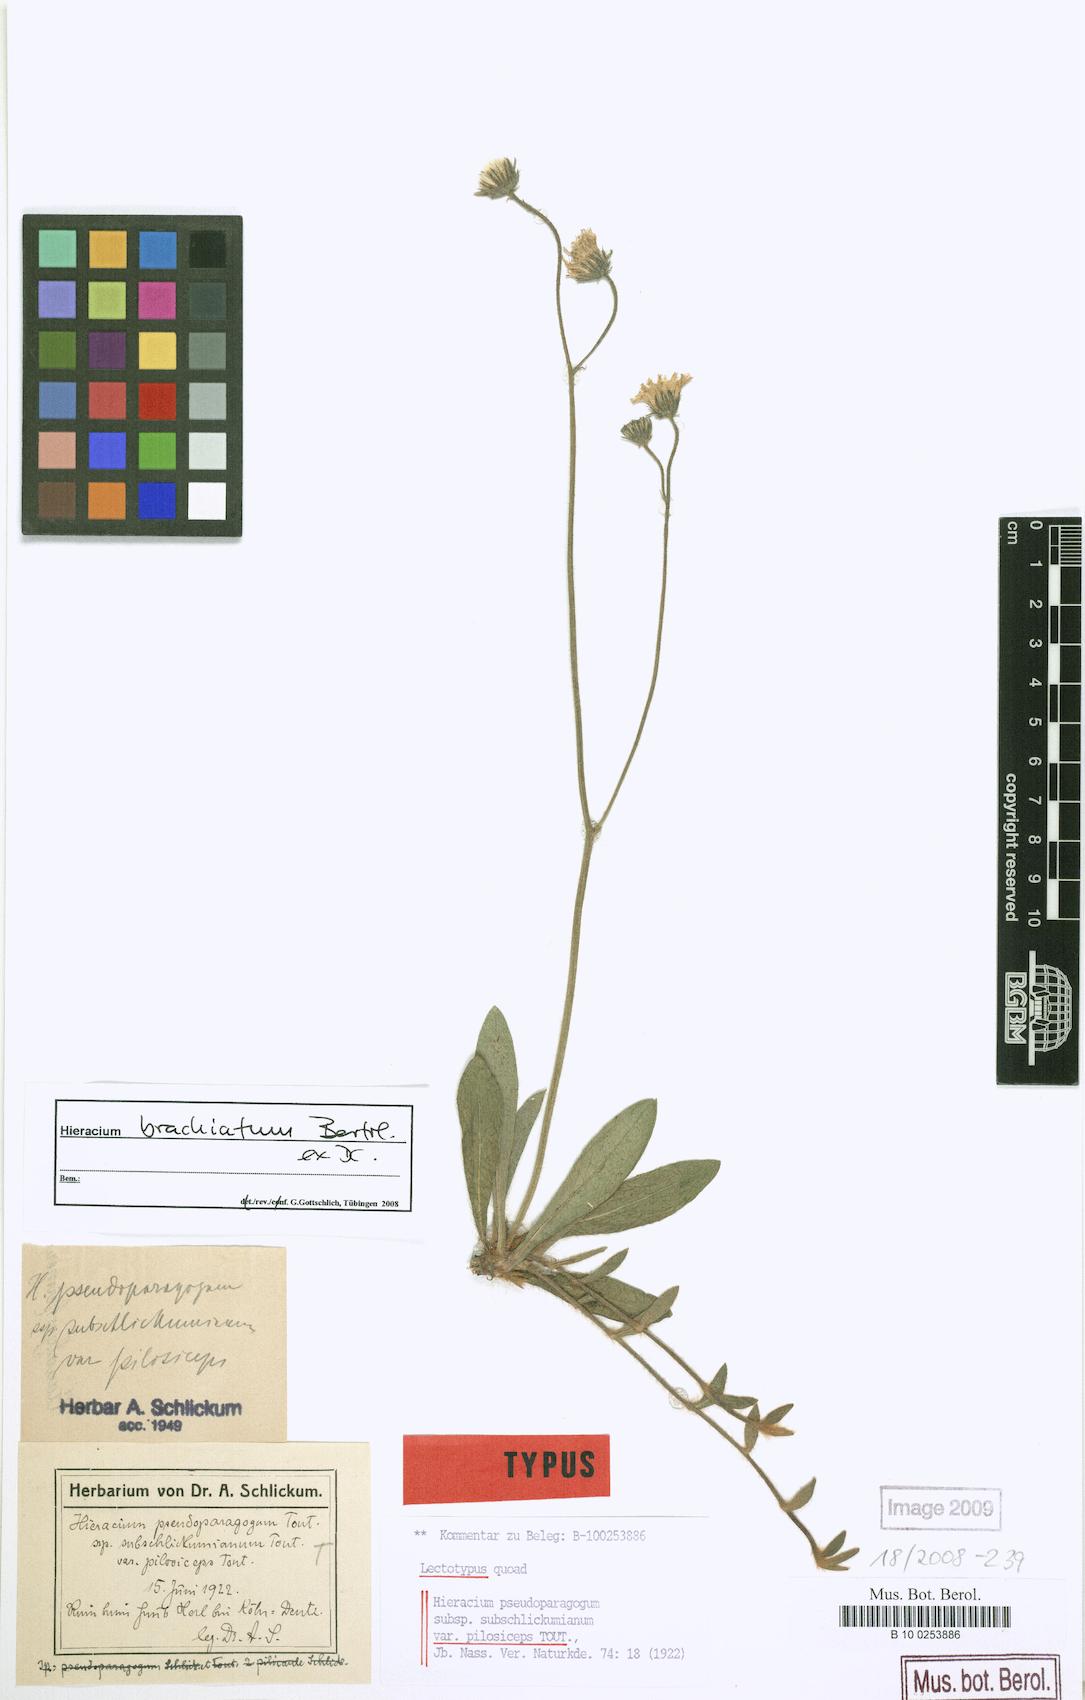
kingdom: Plantae
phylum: Tracheophyta
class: Magnoliopsida
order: Asterales
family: Asteraceae
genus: Pilosella
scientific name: Pilosella acutifolia
